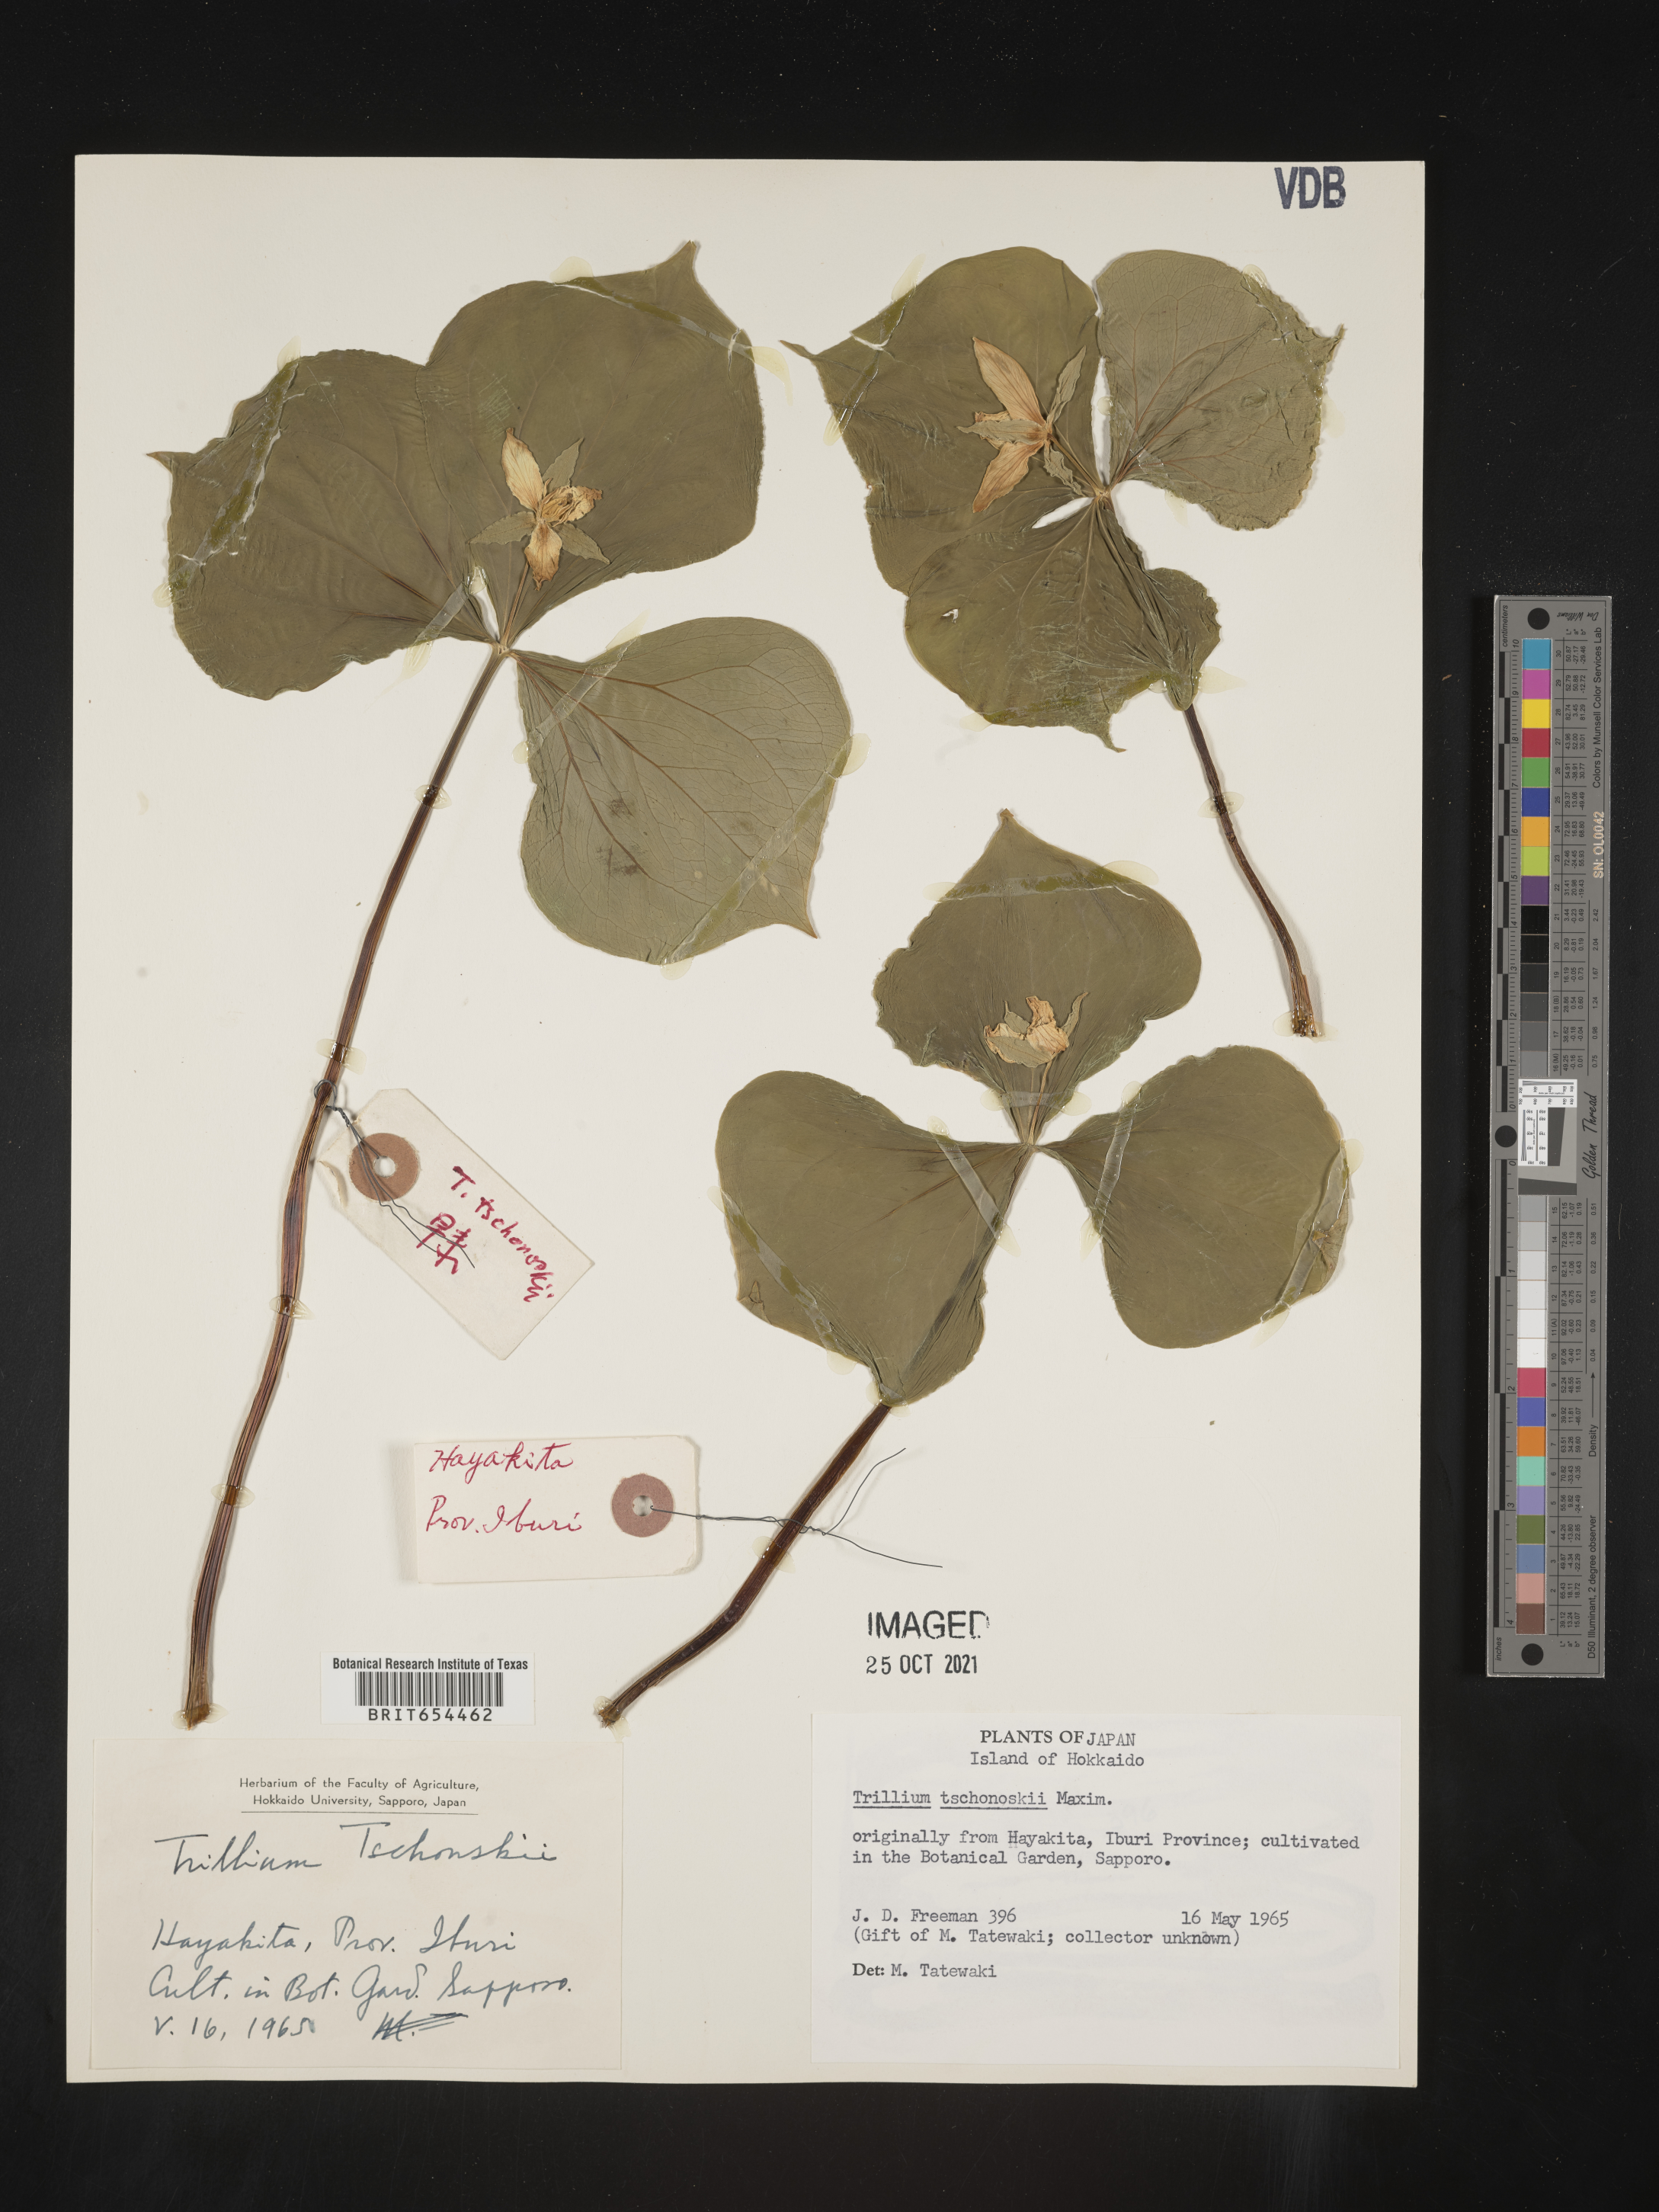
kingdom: Plantae
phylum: Tracheophyta
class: Liliopsida
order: Liliales
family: Melanthiaceae
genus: Trillium
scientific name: Trillium
